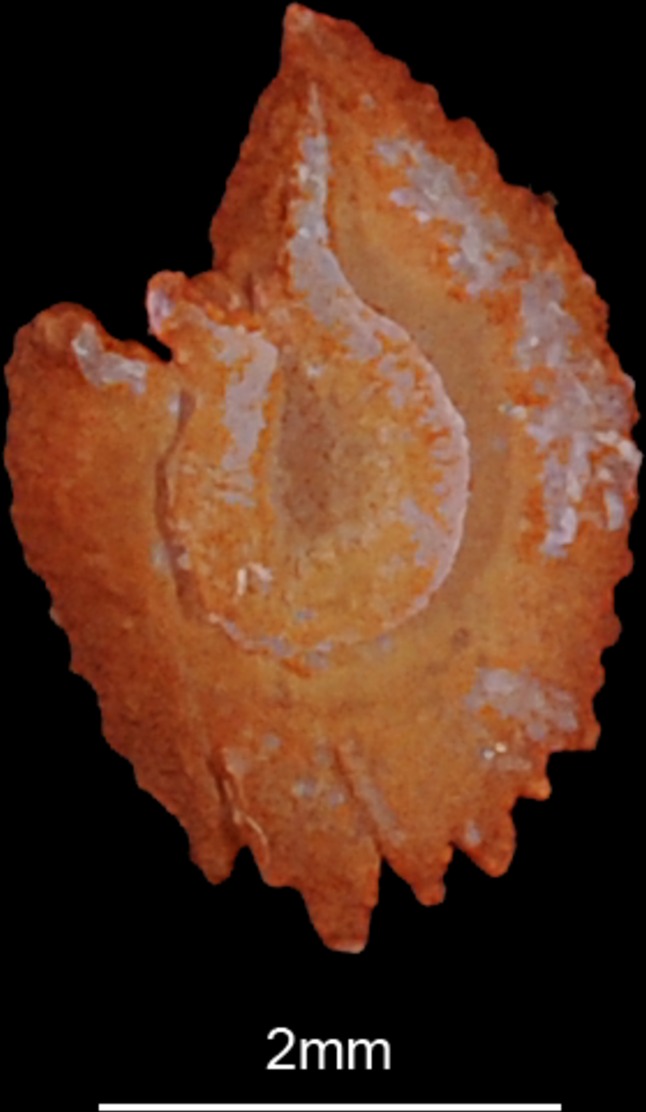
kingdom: Animalia
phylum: Chordata
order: Cypriniformes
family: Cyprinidae
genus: Cyprinus
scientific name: Cyprinus carpio
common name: Common carp
